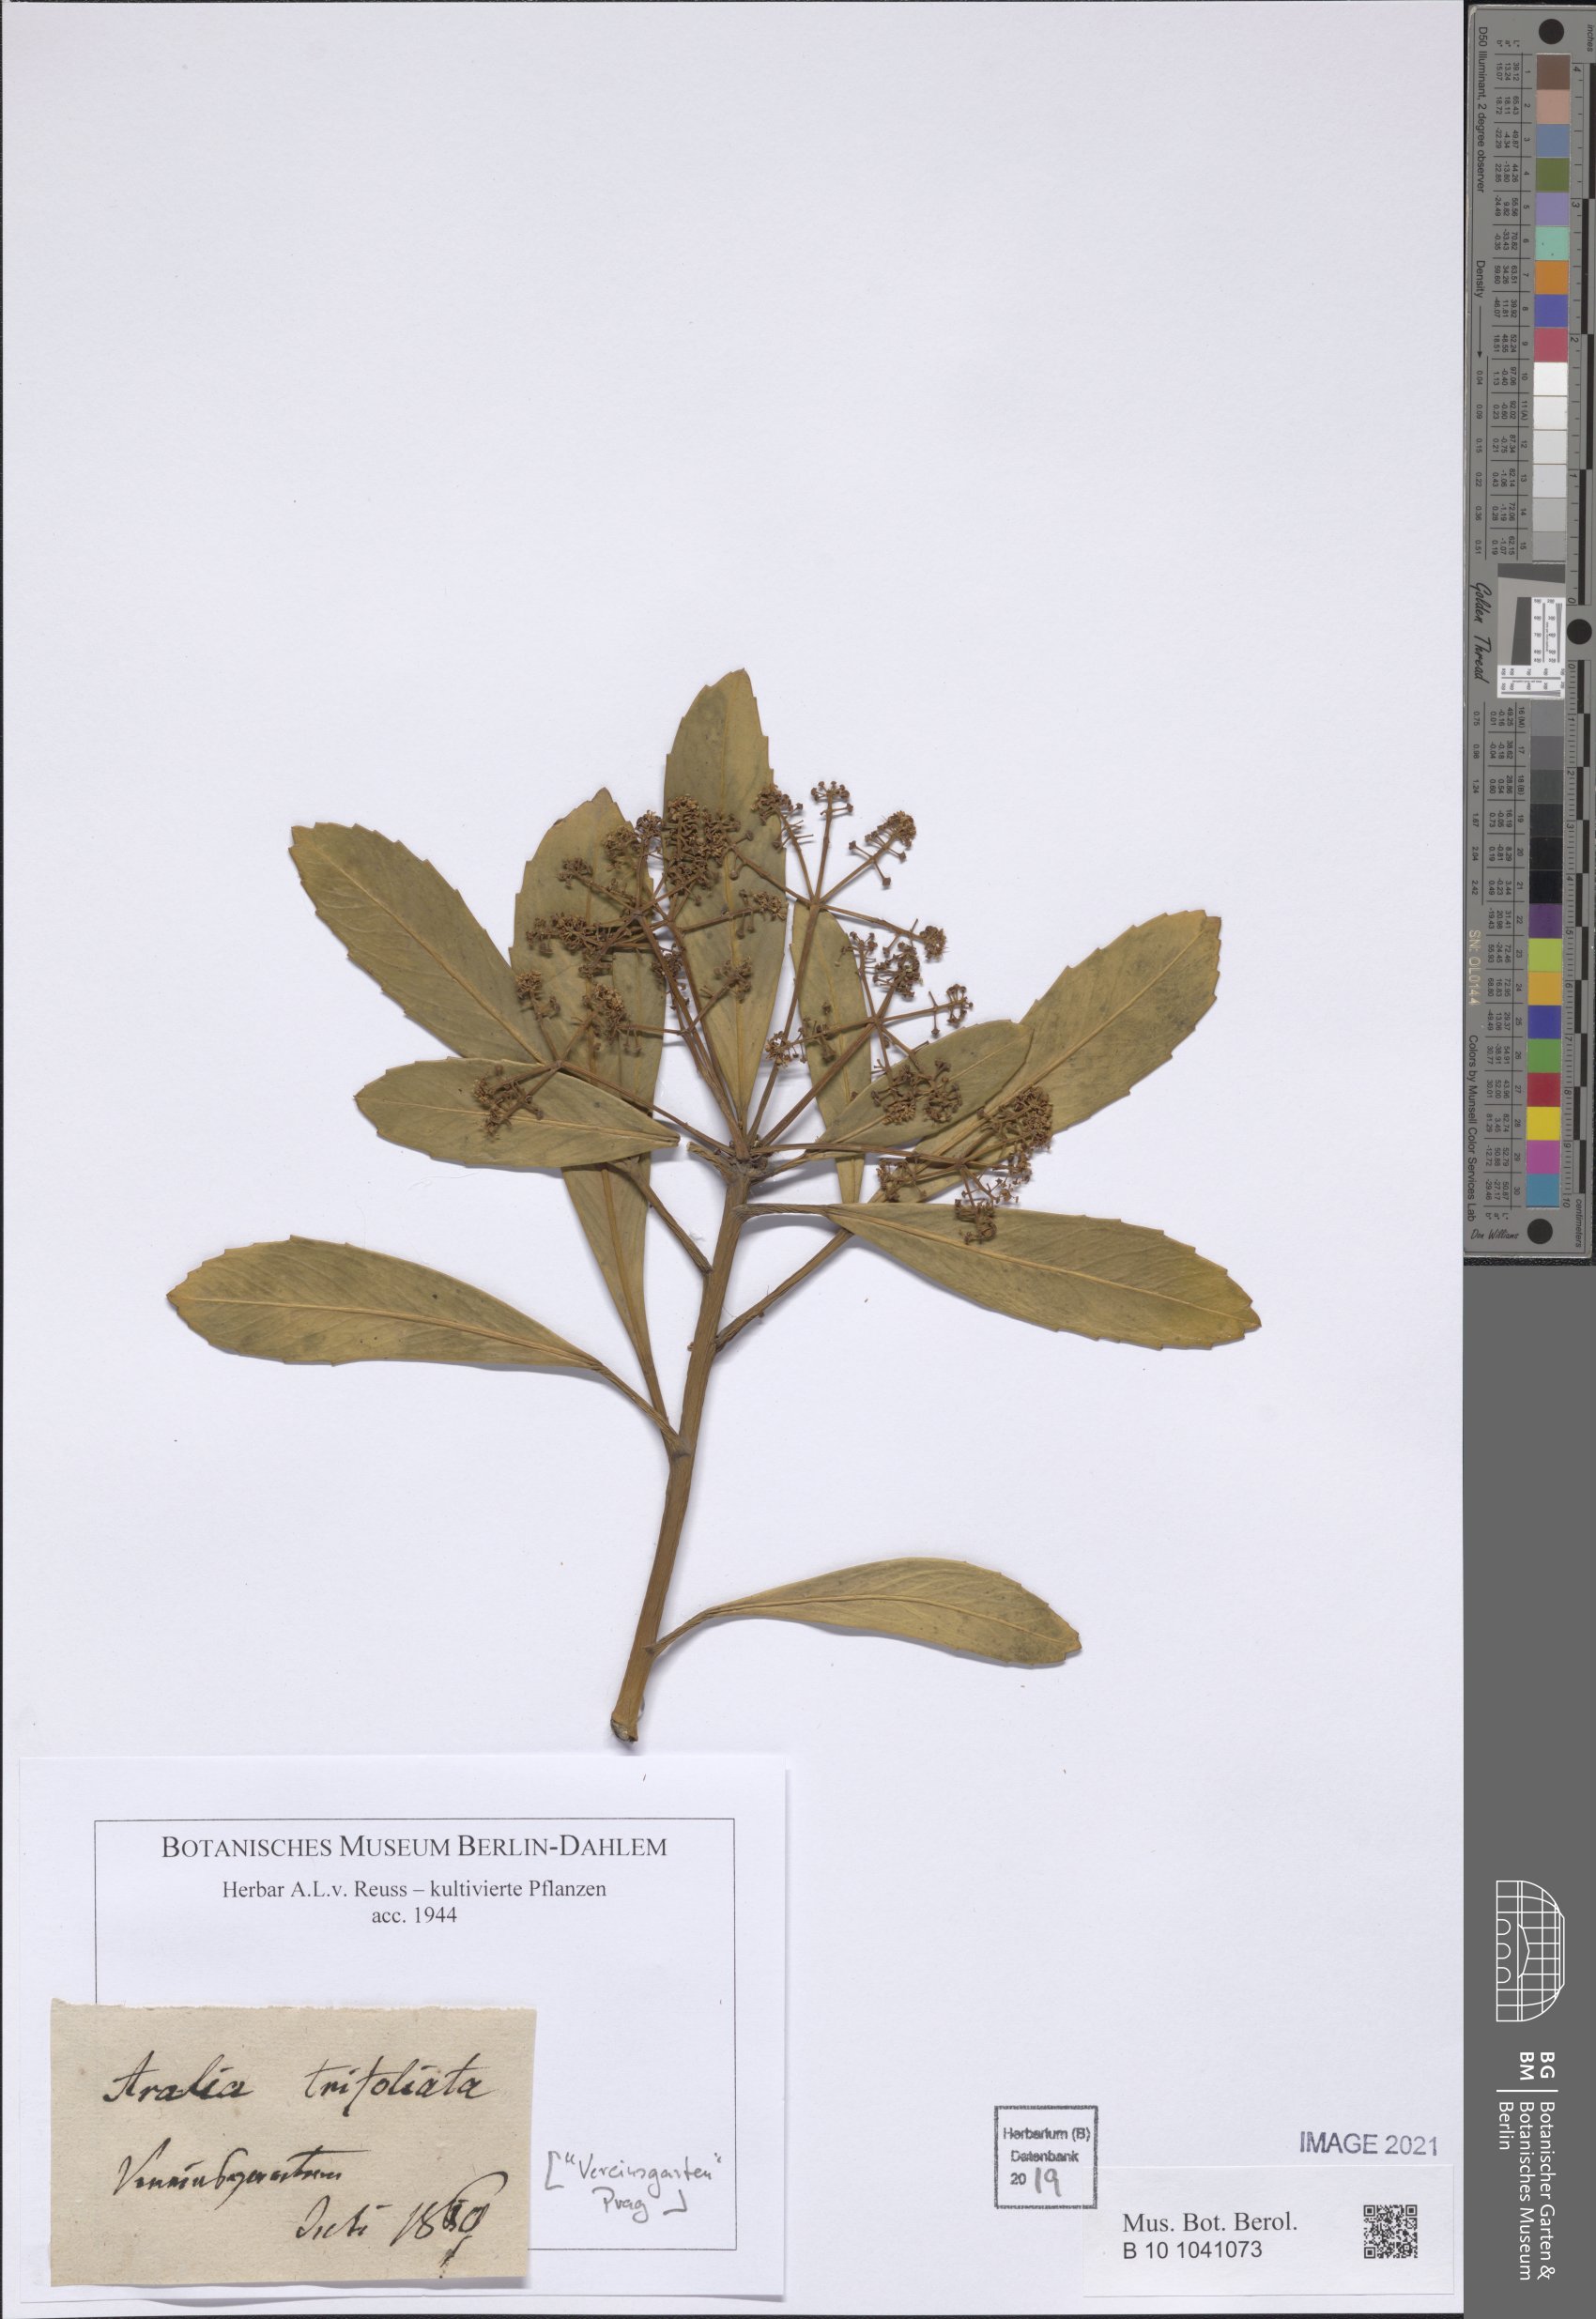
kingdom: Plantae
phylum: Tracheophyta
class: Magnoliopsida
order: Apiales
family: Araliaceae
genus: Eleutherococcus
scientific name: Eleutherococcus trifoliatus
